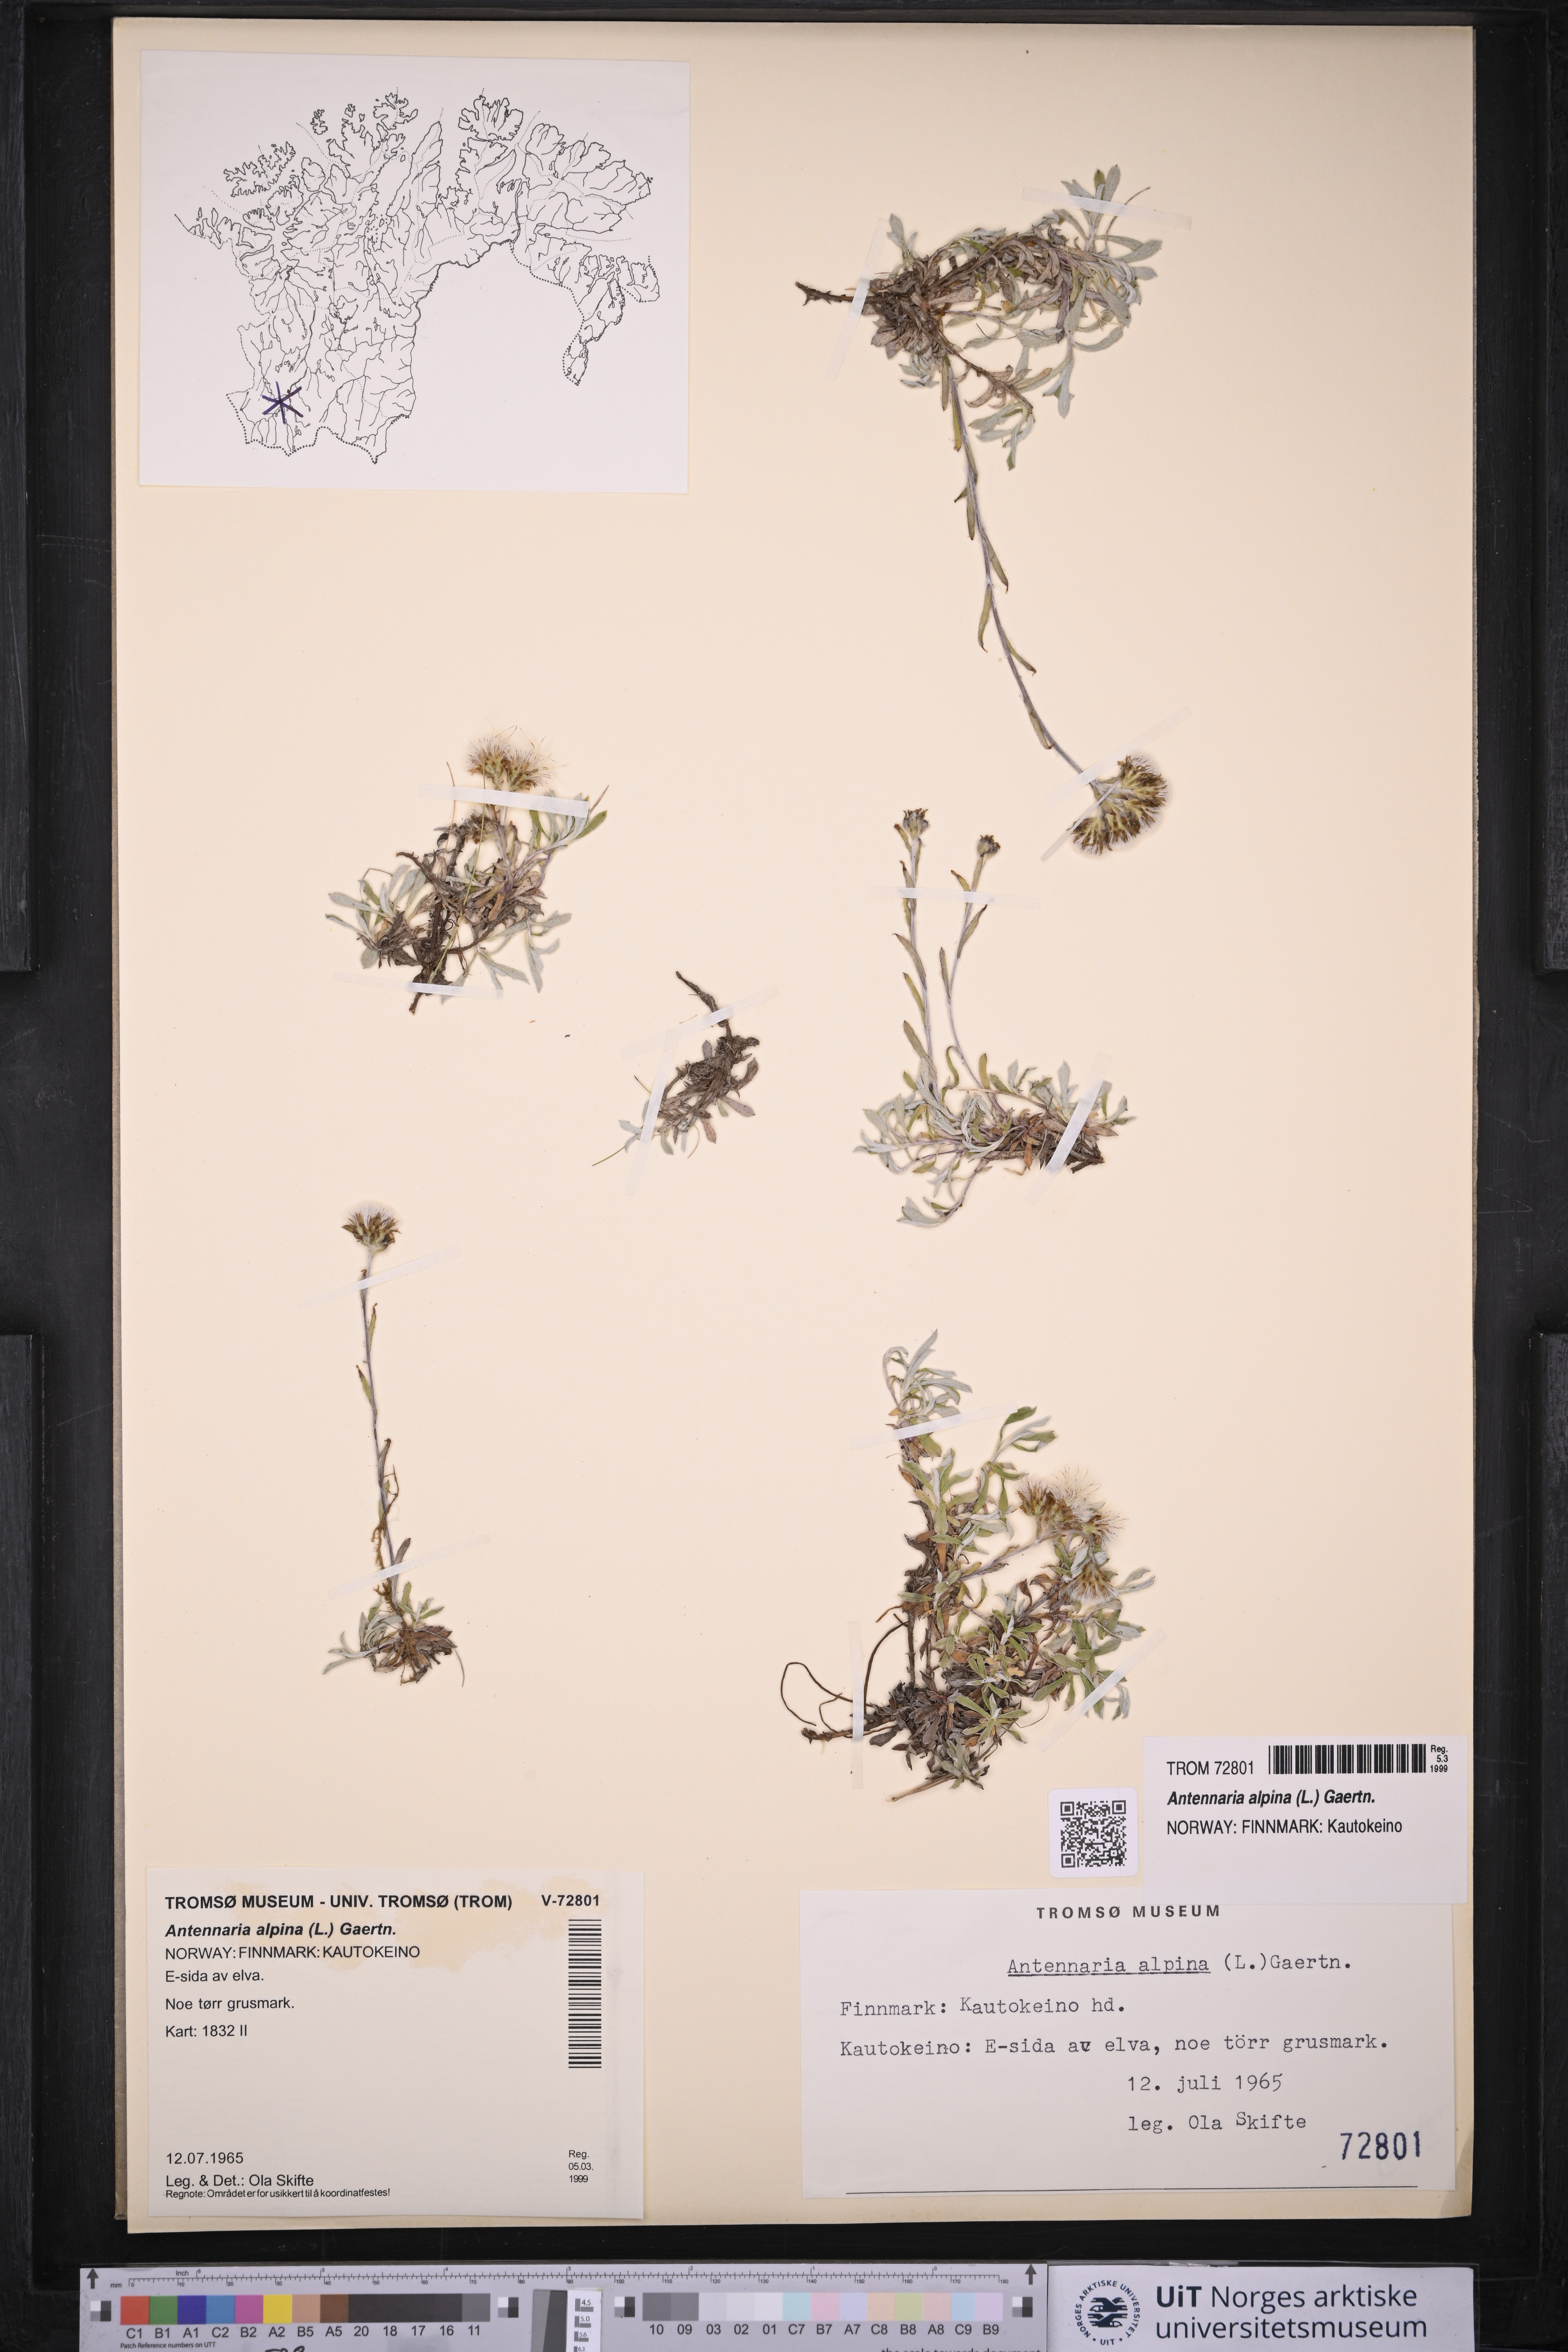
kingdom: Plantae
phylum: Tracheophyta
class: Magnoliopsida
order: Asterales
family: Asteraceae
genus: Antennaria
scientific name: Antennaria alpina
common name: Alpine pussytoes
